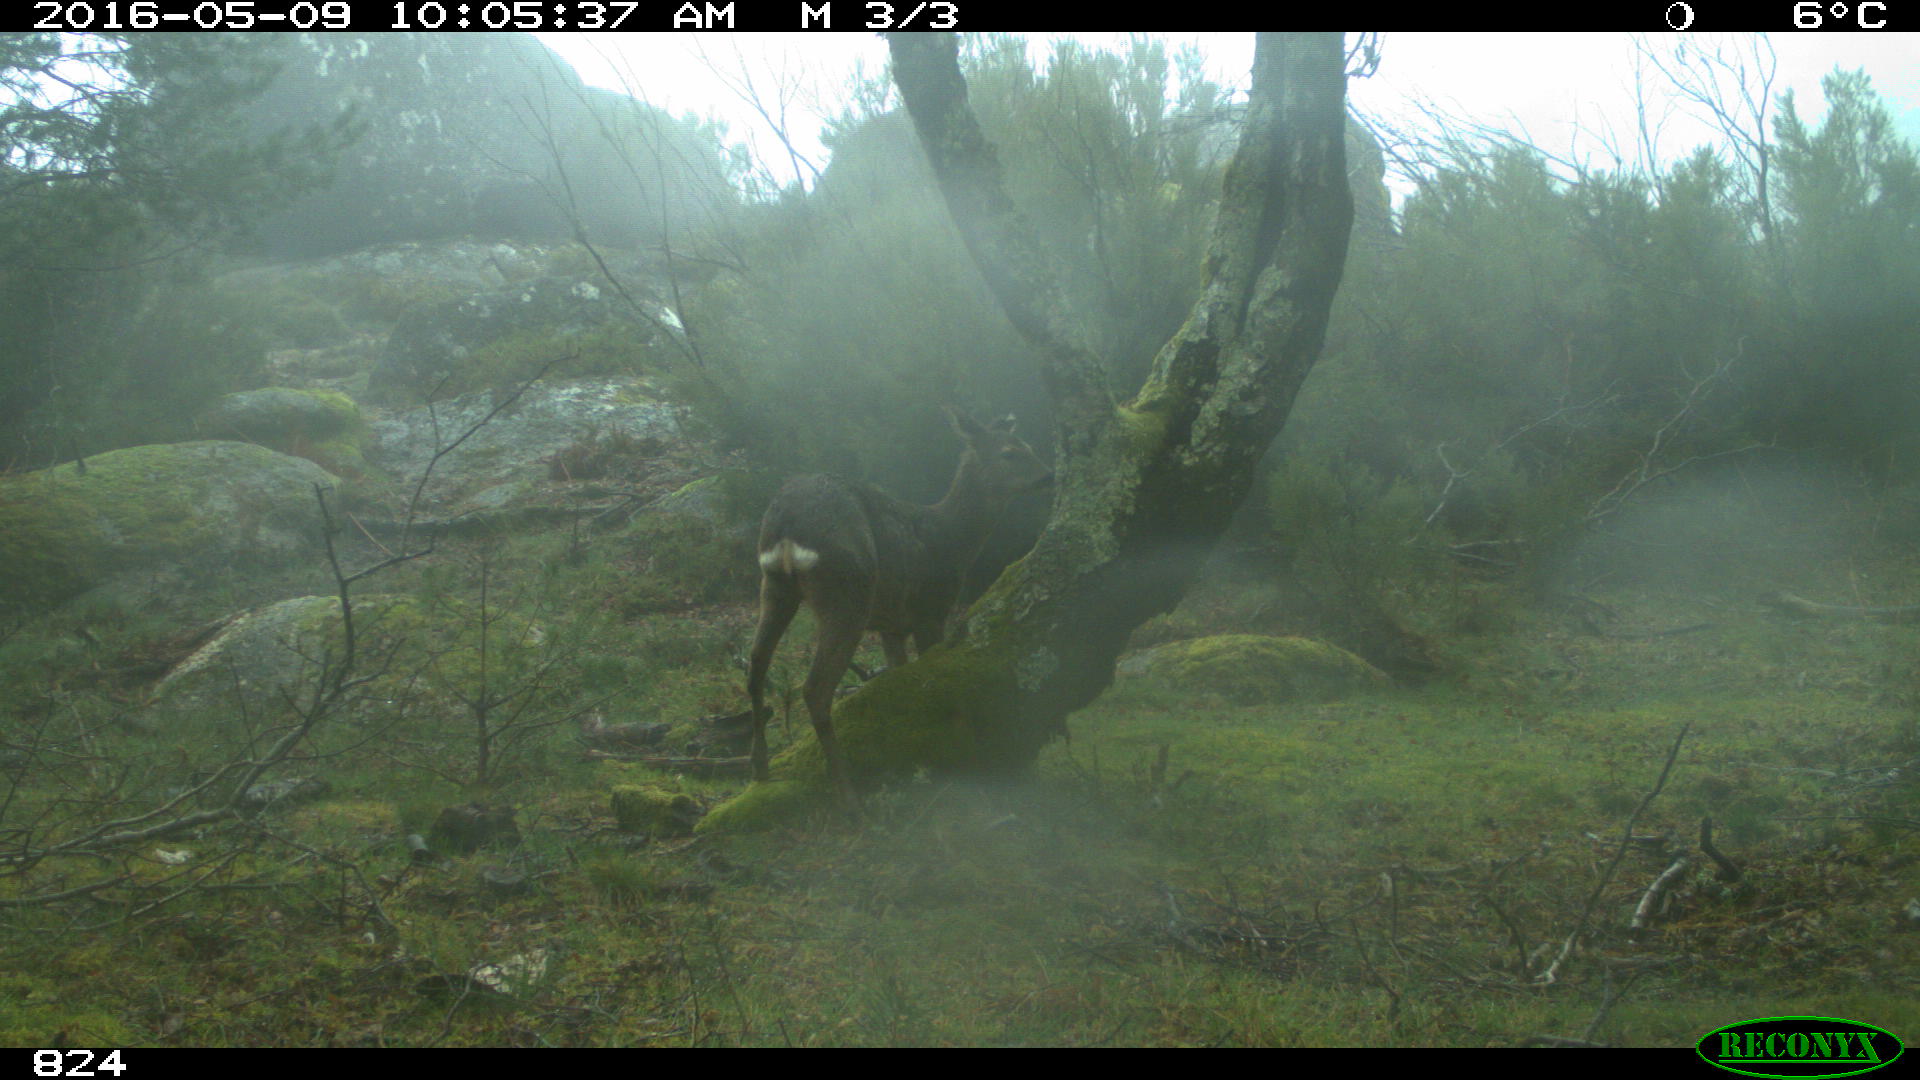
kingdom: Animalia
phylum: Chordata
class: Mammalia
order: Artiodactyla
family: Cervidae
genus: Capreolus
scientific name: Capreolus capreolus
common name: Western roe deer
